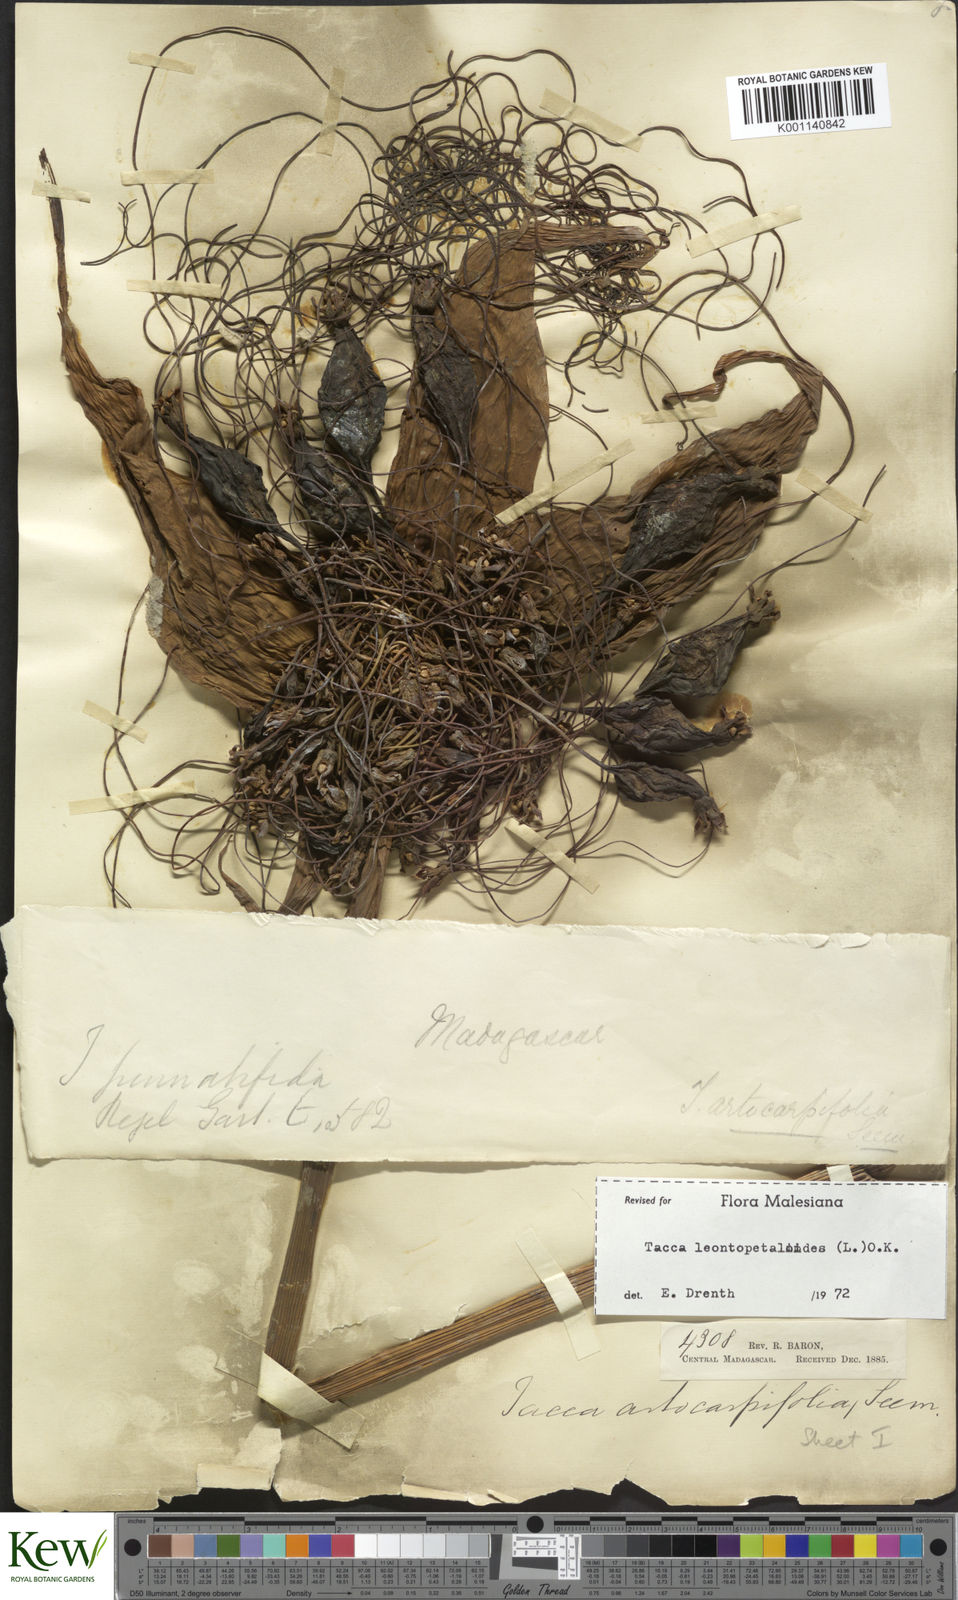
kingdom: Plantae
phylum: Tracheophyta
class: Liliopsida
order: Dioscoreales
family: Dioscoreaceae
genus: Tacca
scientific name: Tacca leontopetaloides
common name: Arrowroot
